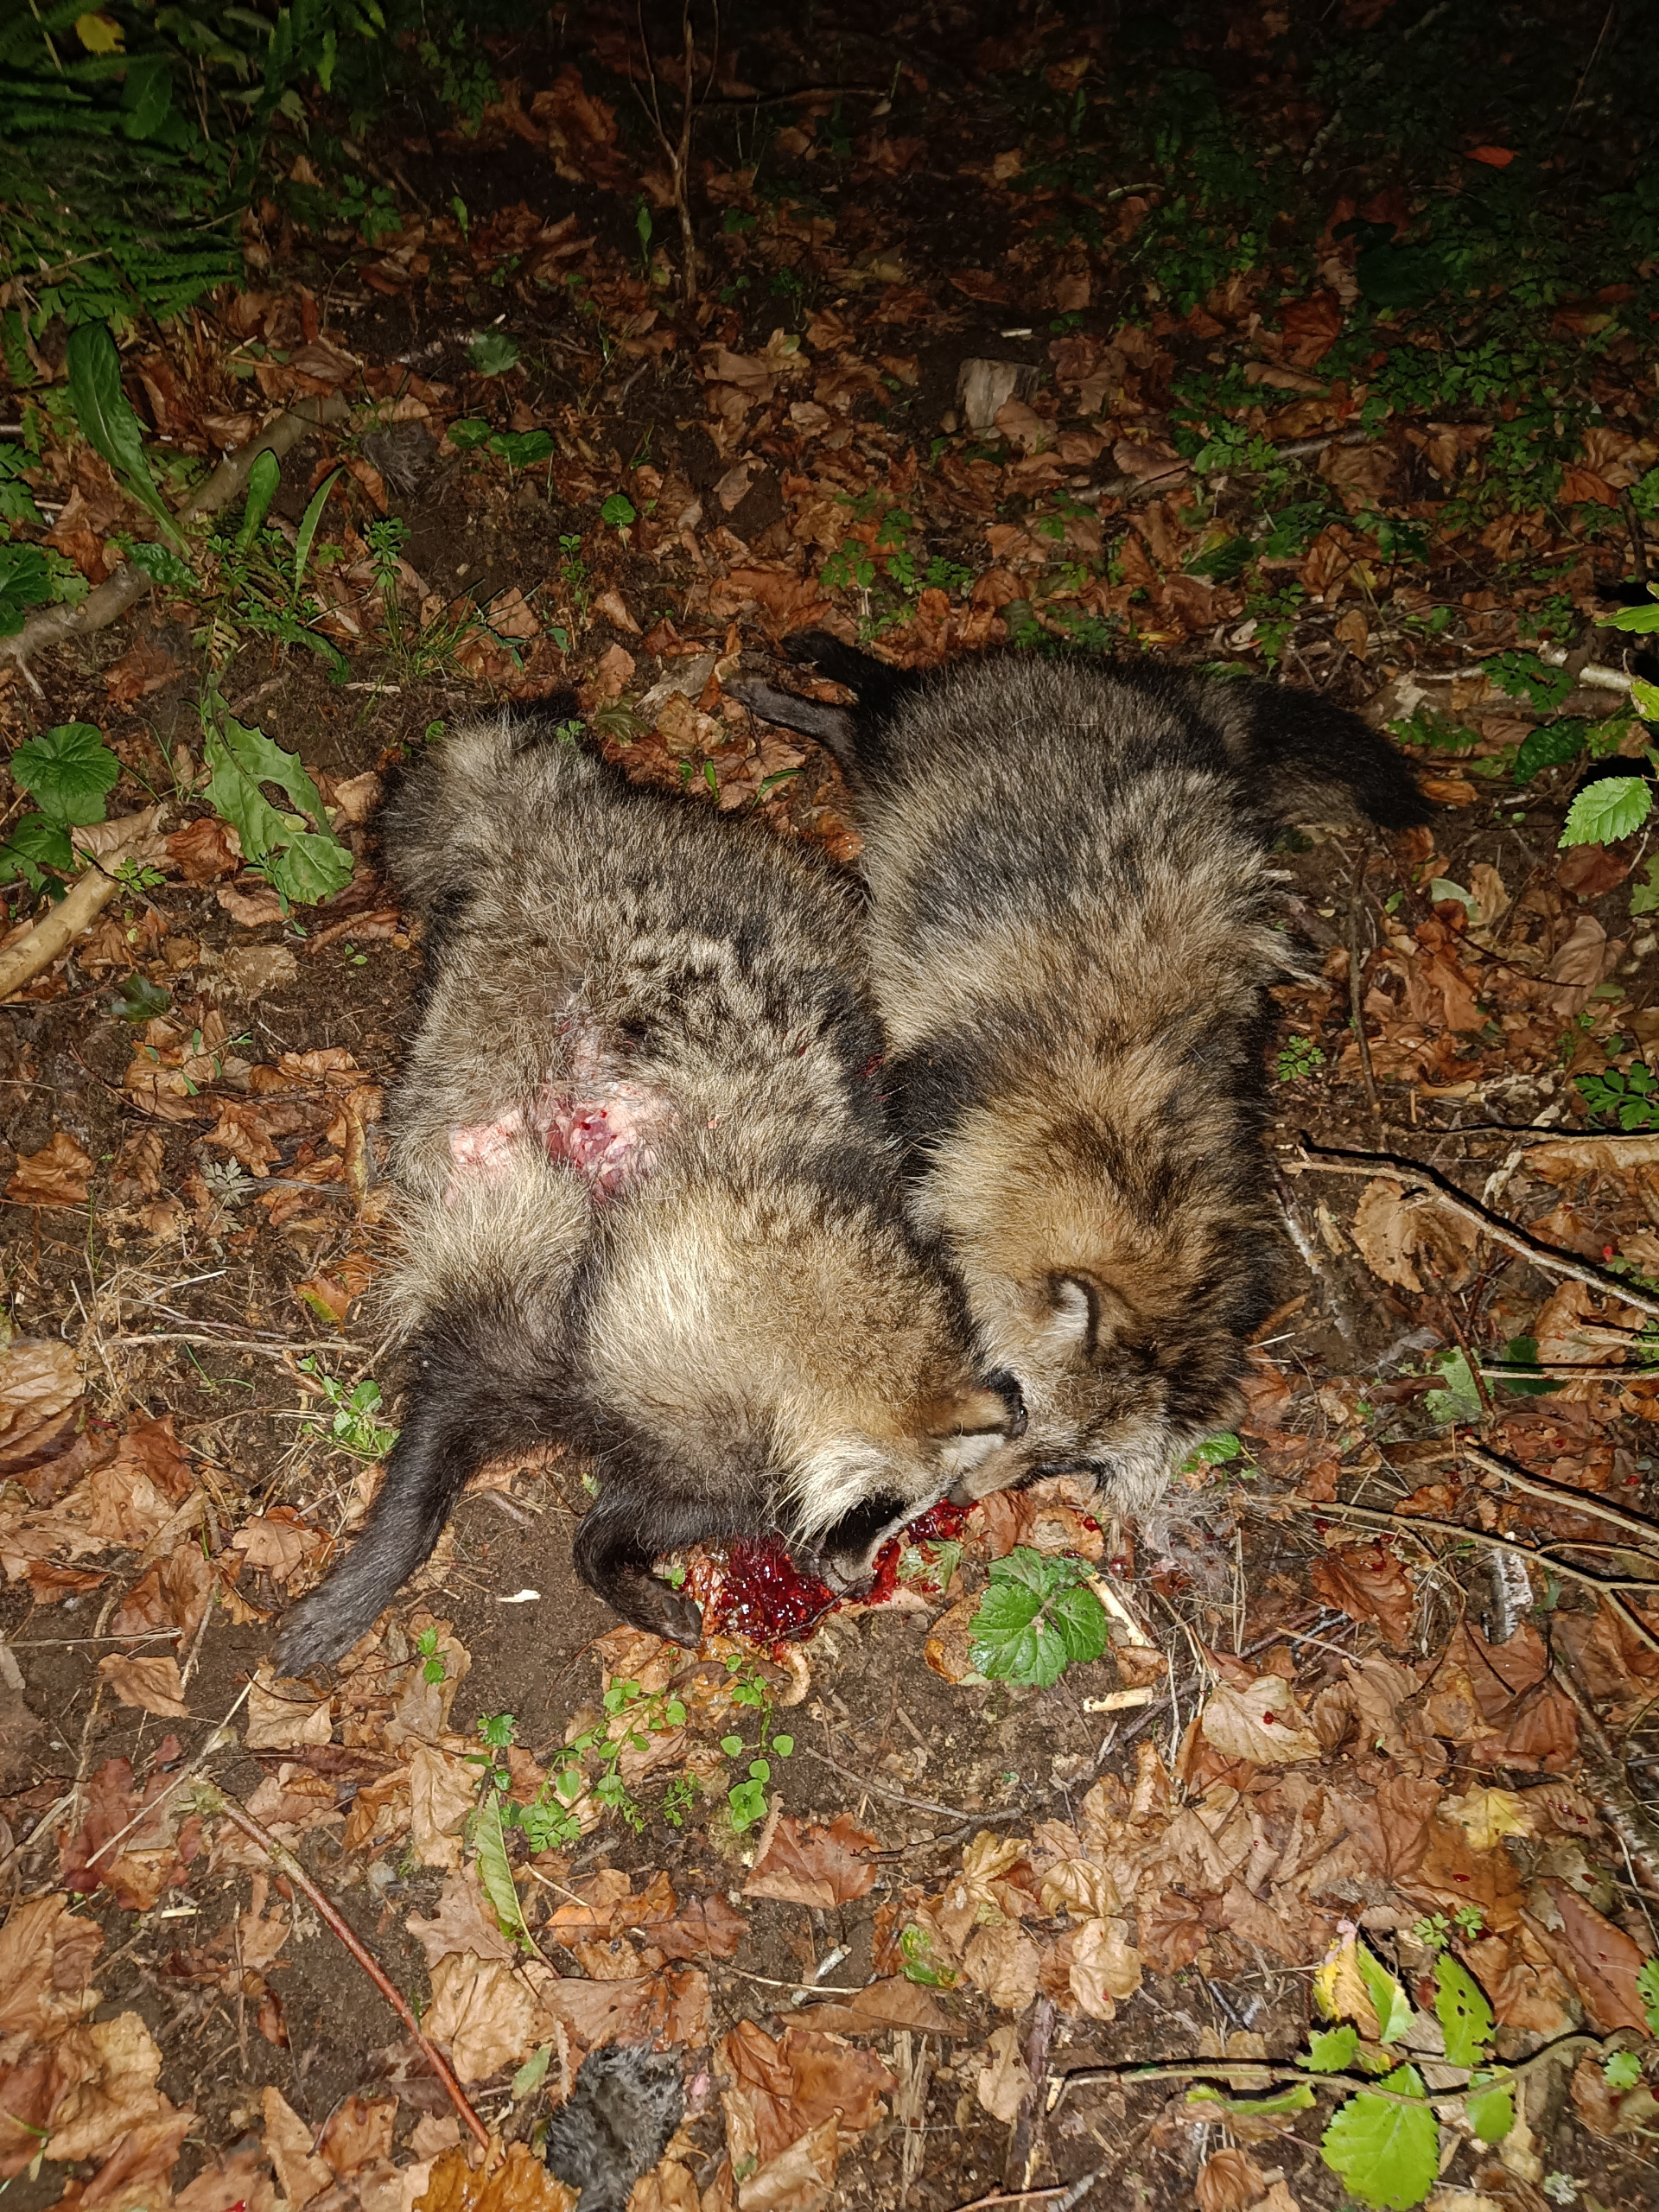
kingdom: Animalia
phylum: Chordata
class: Mammalia
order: Carnivora
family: Canidae
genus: Nyctereutes
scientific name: Nyctereutes procyonoides
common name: Mårhund
